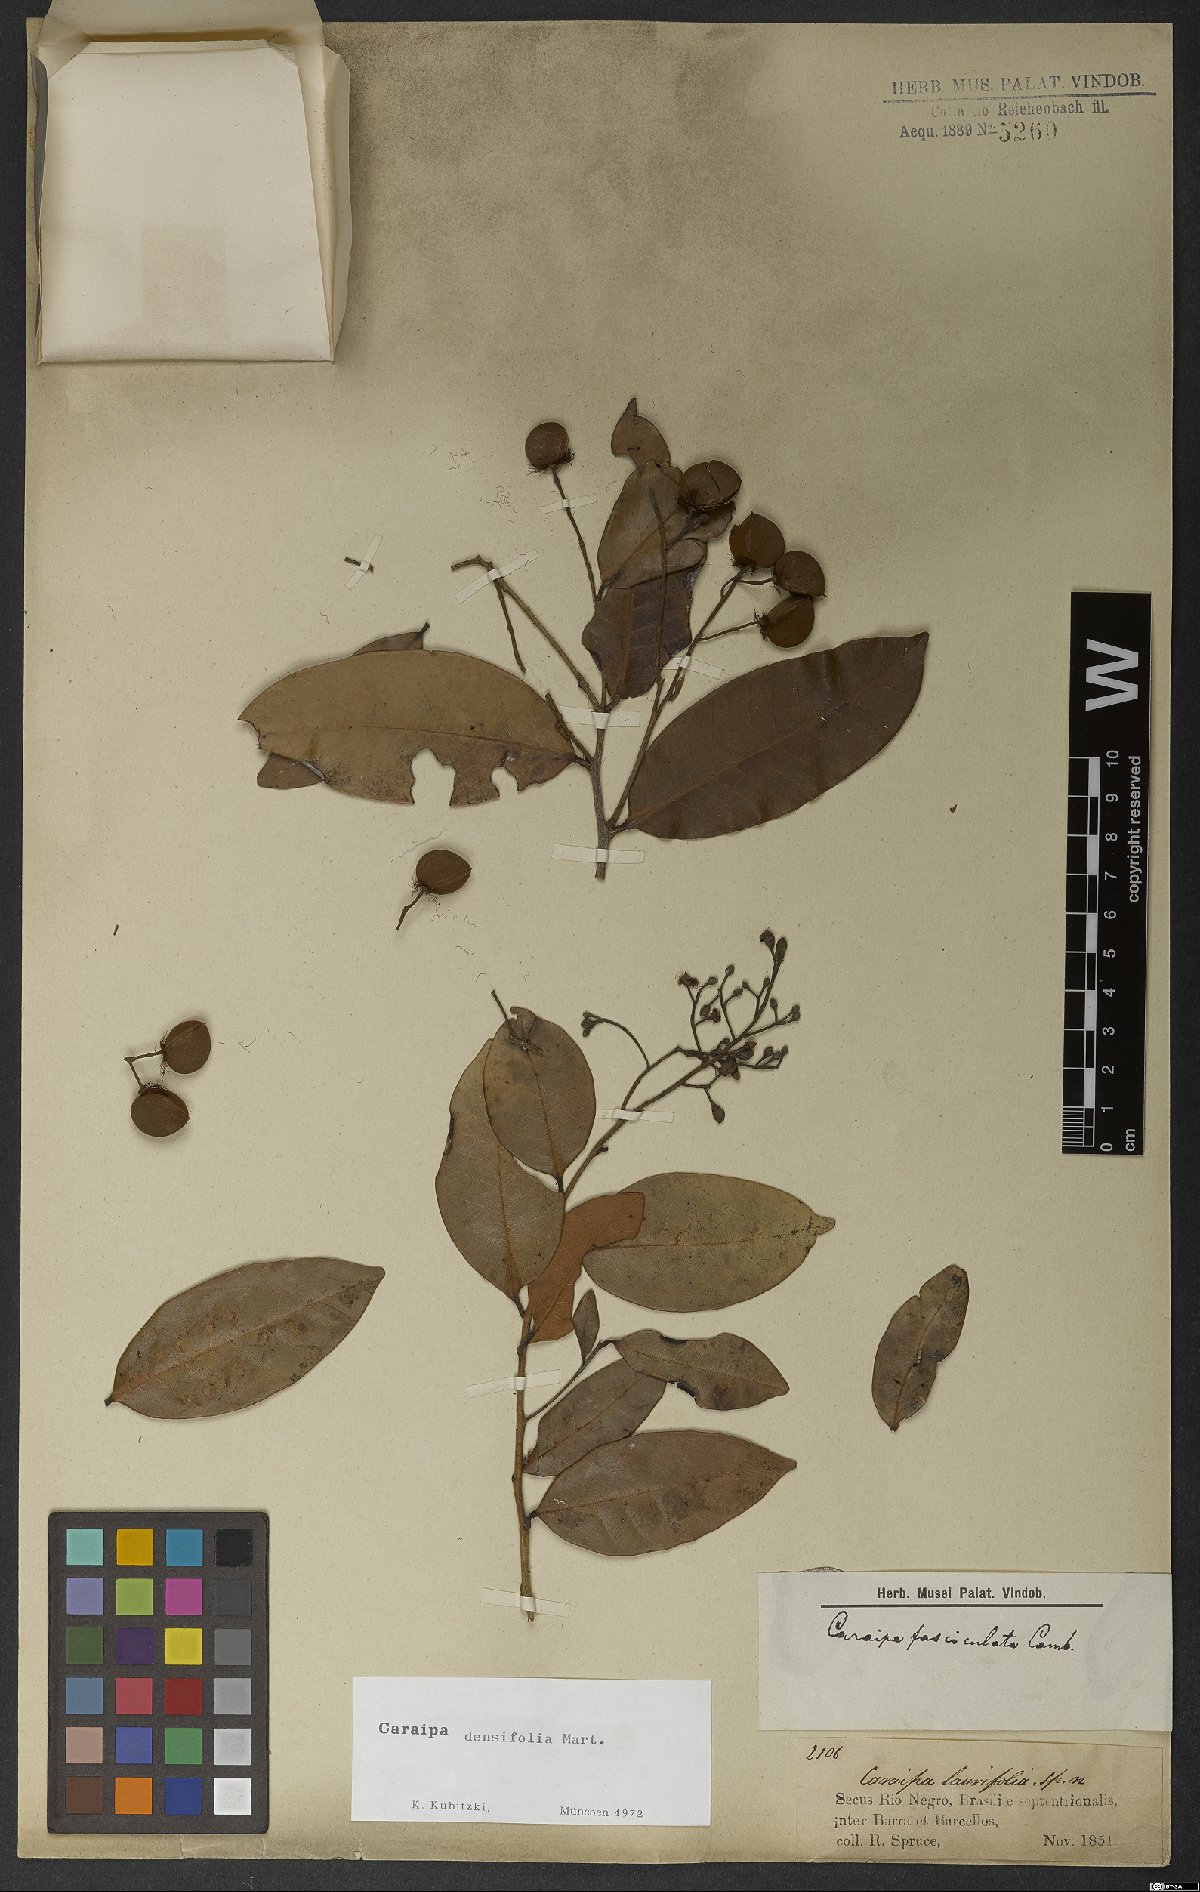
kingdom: Plantae
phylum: Tracheophyta
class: Magnoliopsida
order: Malpighiales
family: Calophyllaceae
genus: Caraipa
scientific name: Caraipa densifolia
